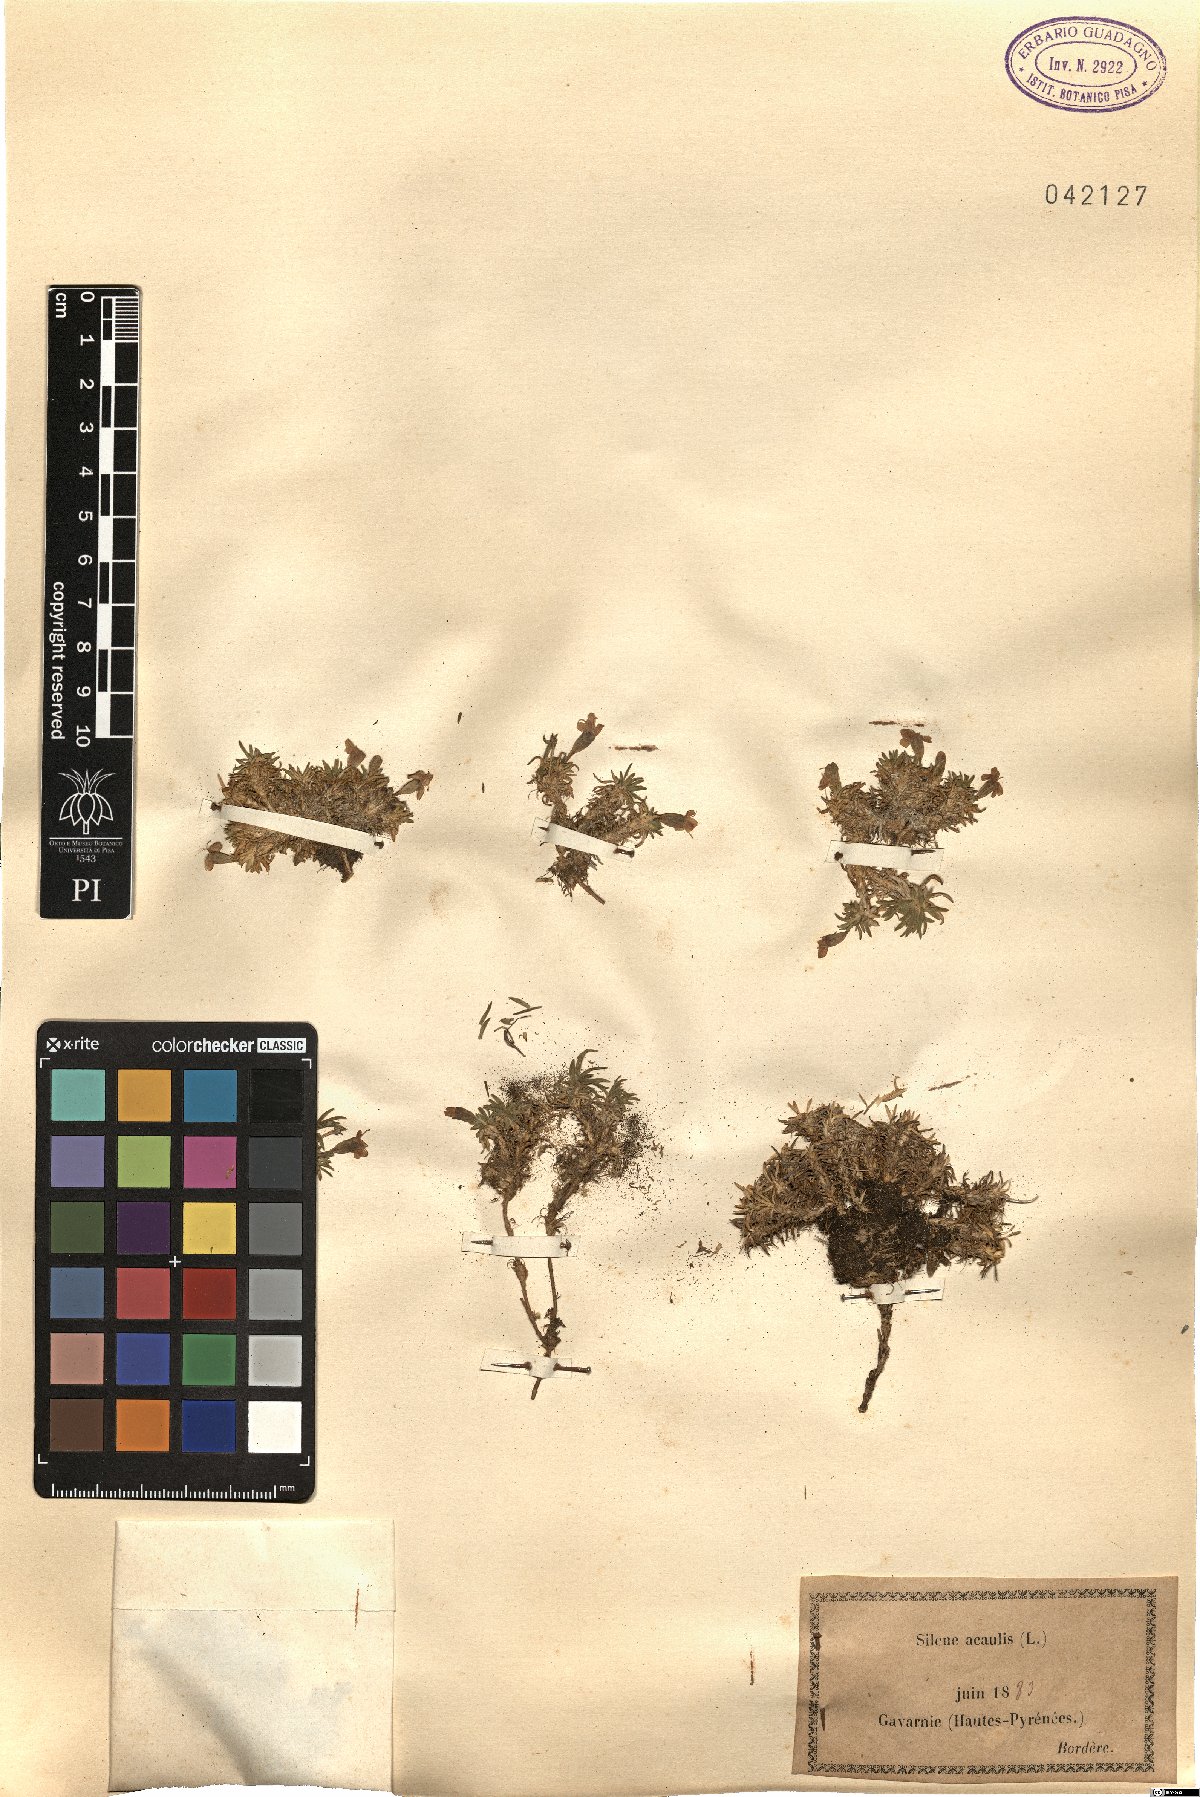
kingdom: Plantae
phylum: Tracheophyta
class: Magnoliopsida
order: Caryophyllales
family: Caryophyllaceae
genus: Silene
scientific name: Silene acaulis
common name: Moss campion
